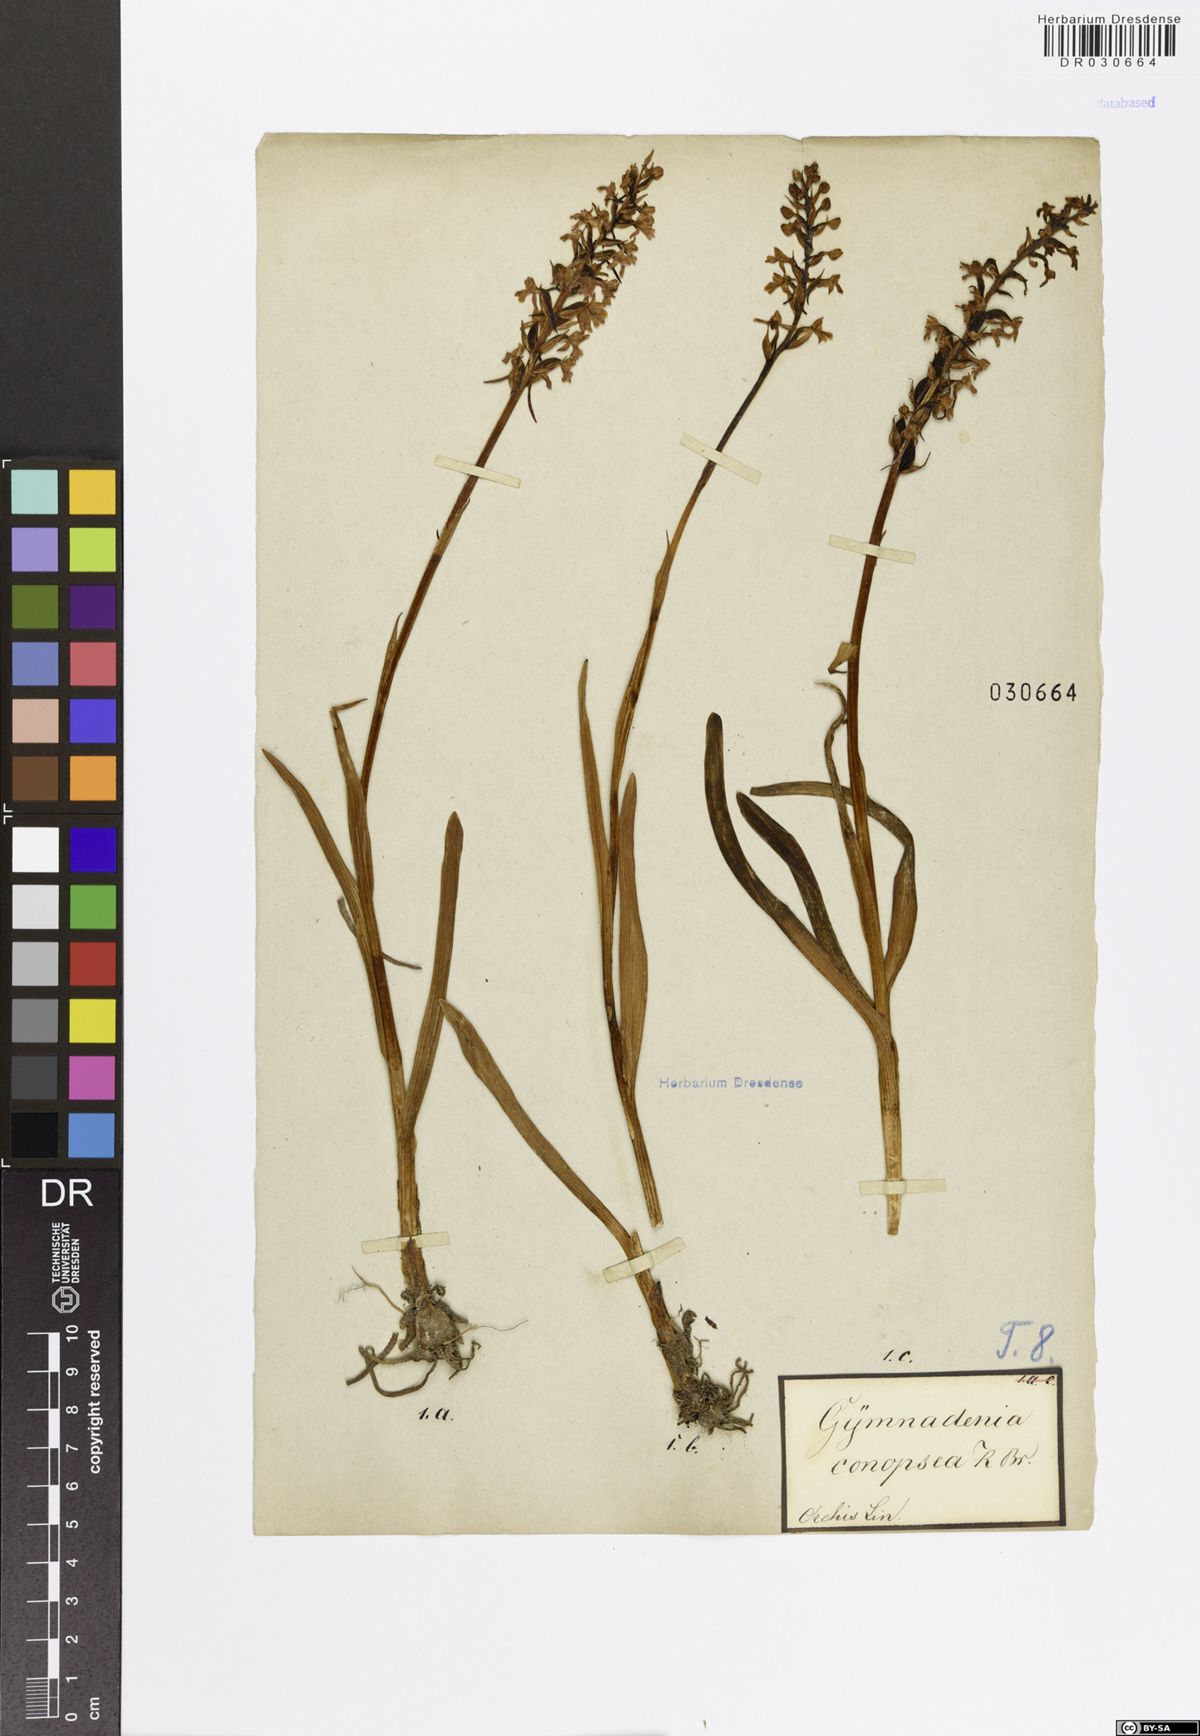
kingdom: Plantae
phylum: Tracheophyta
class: Liliopsida
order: Asparagales
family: Orchidaceae
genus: Gymnadenia
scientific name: Gymnadenia conopsea
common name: Fragrant orchid
